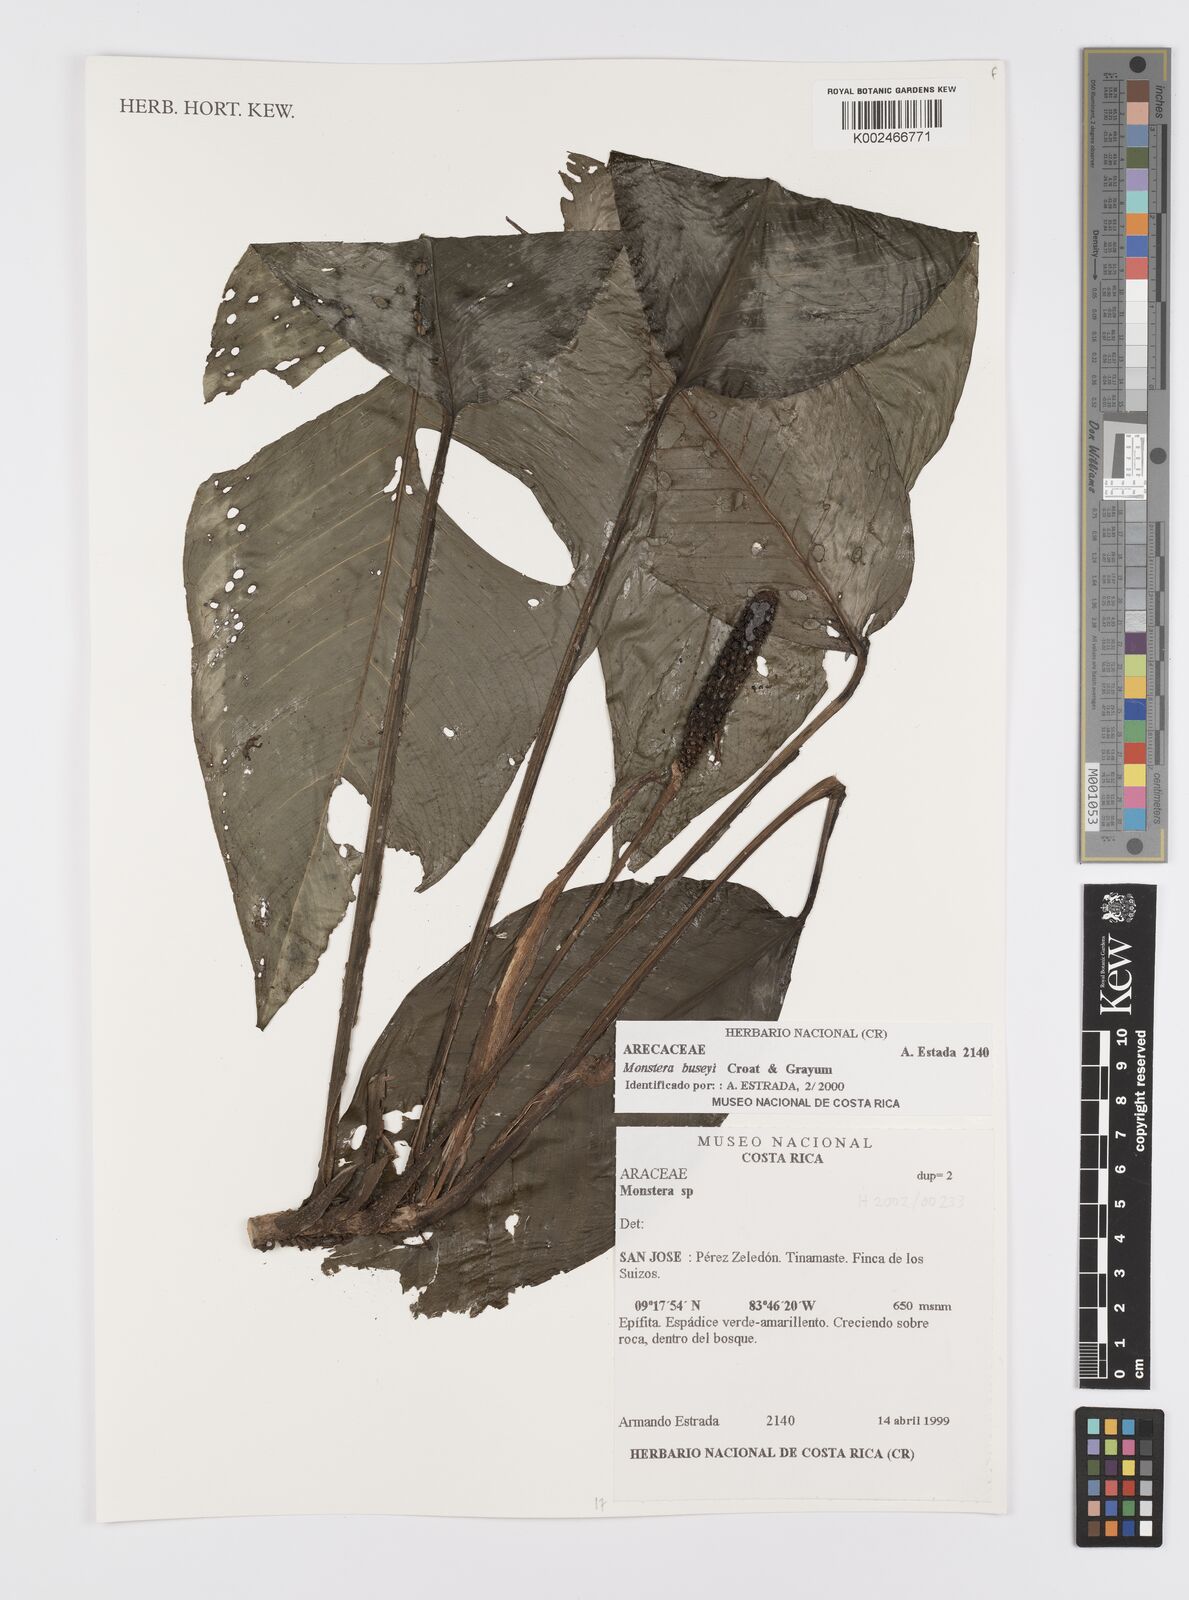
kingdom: Plantae
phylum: Tracheophyta
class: Liliopsida
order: Alismatales
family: Araceae
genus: Monstera
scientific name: Monstera buseyi
